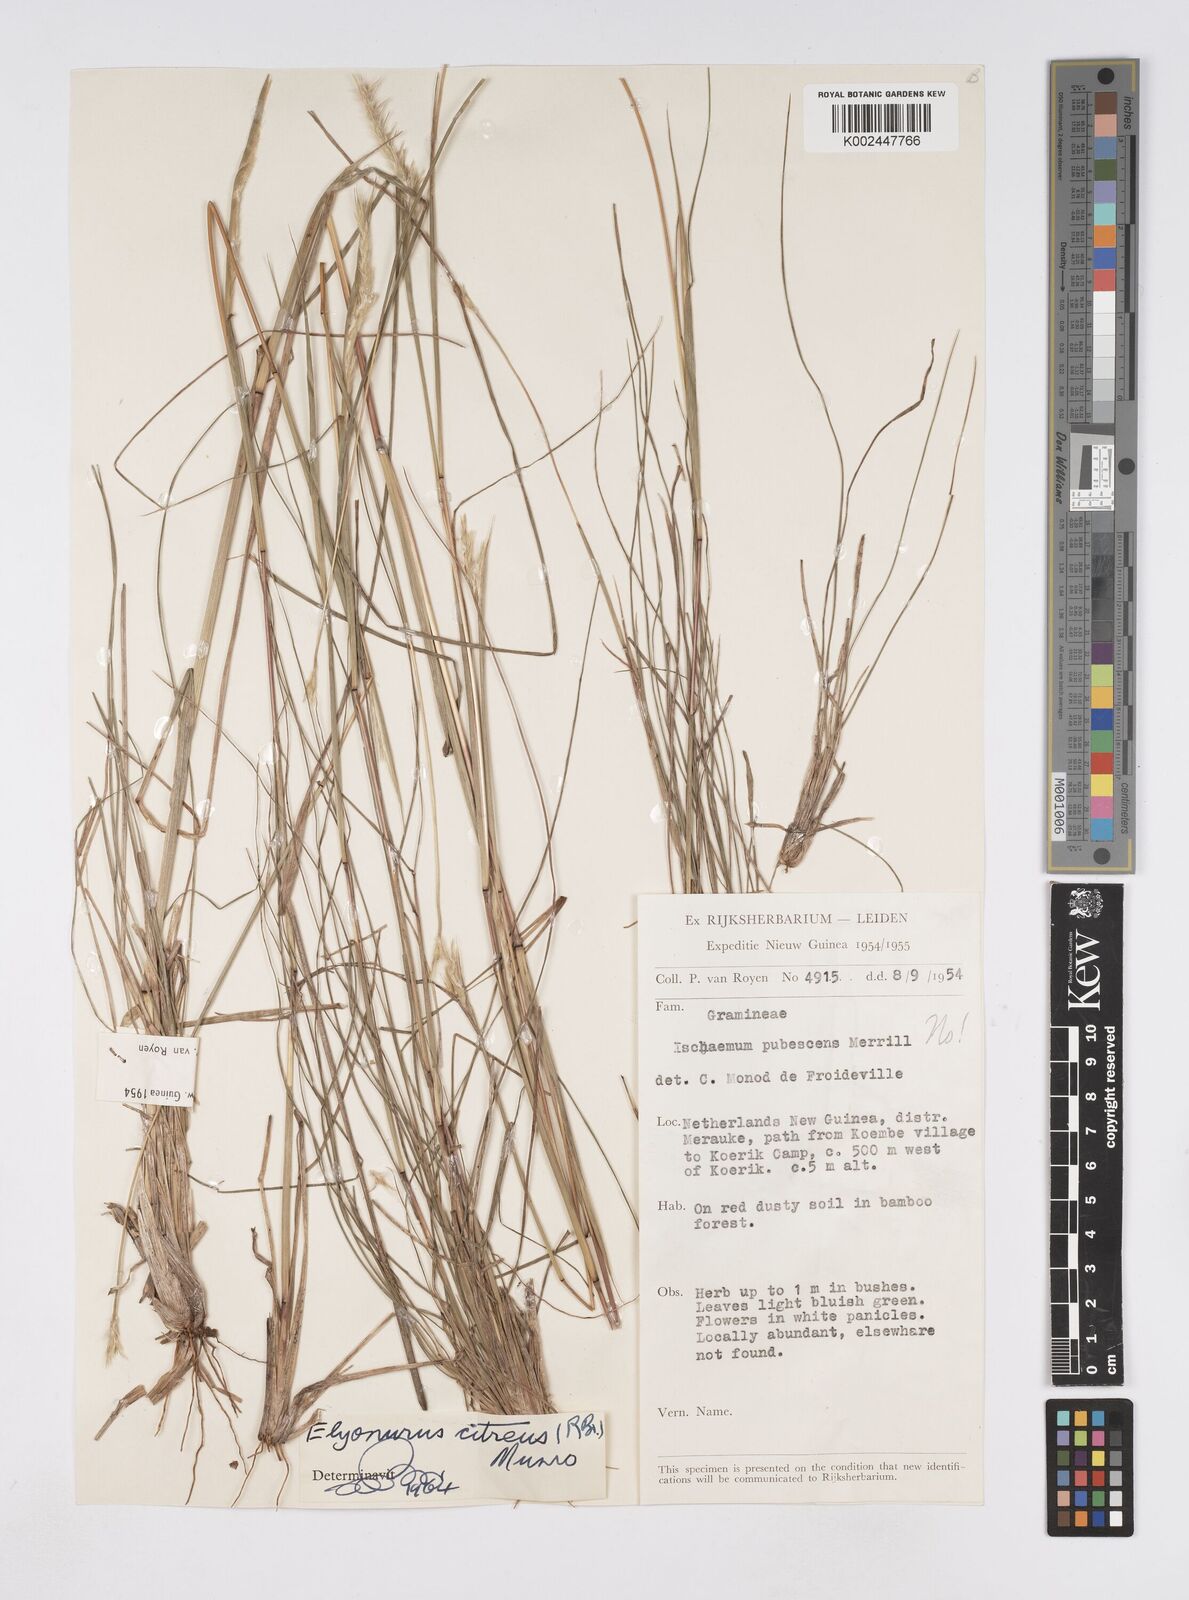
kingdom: Plantae
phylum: Tracheophyta
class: Liliopsida
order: Poales
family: Poaceae
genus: Elionurus
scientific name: Elionurus citreus
